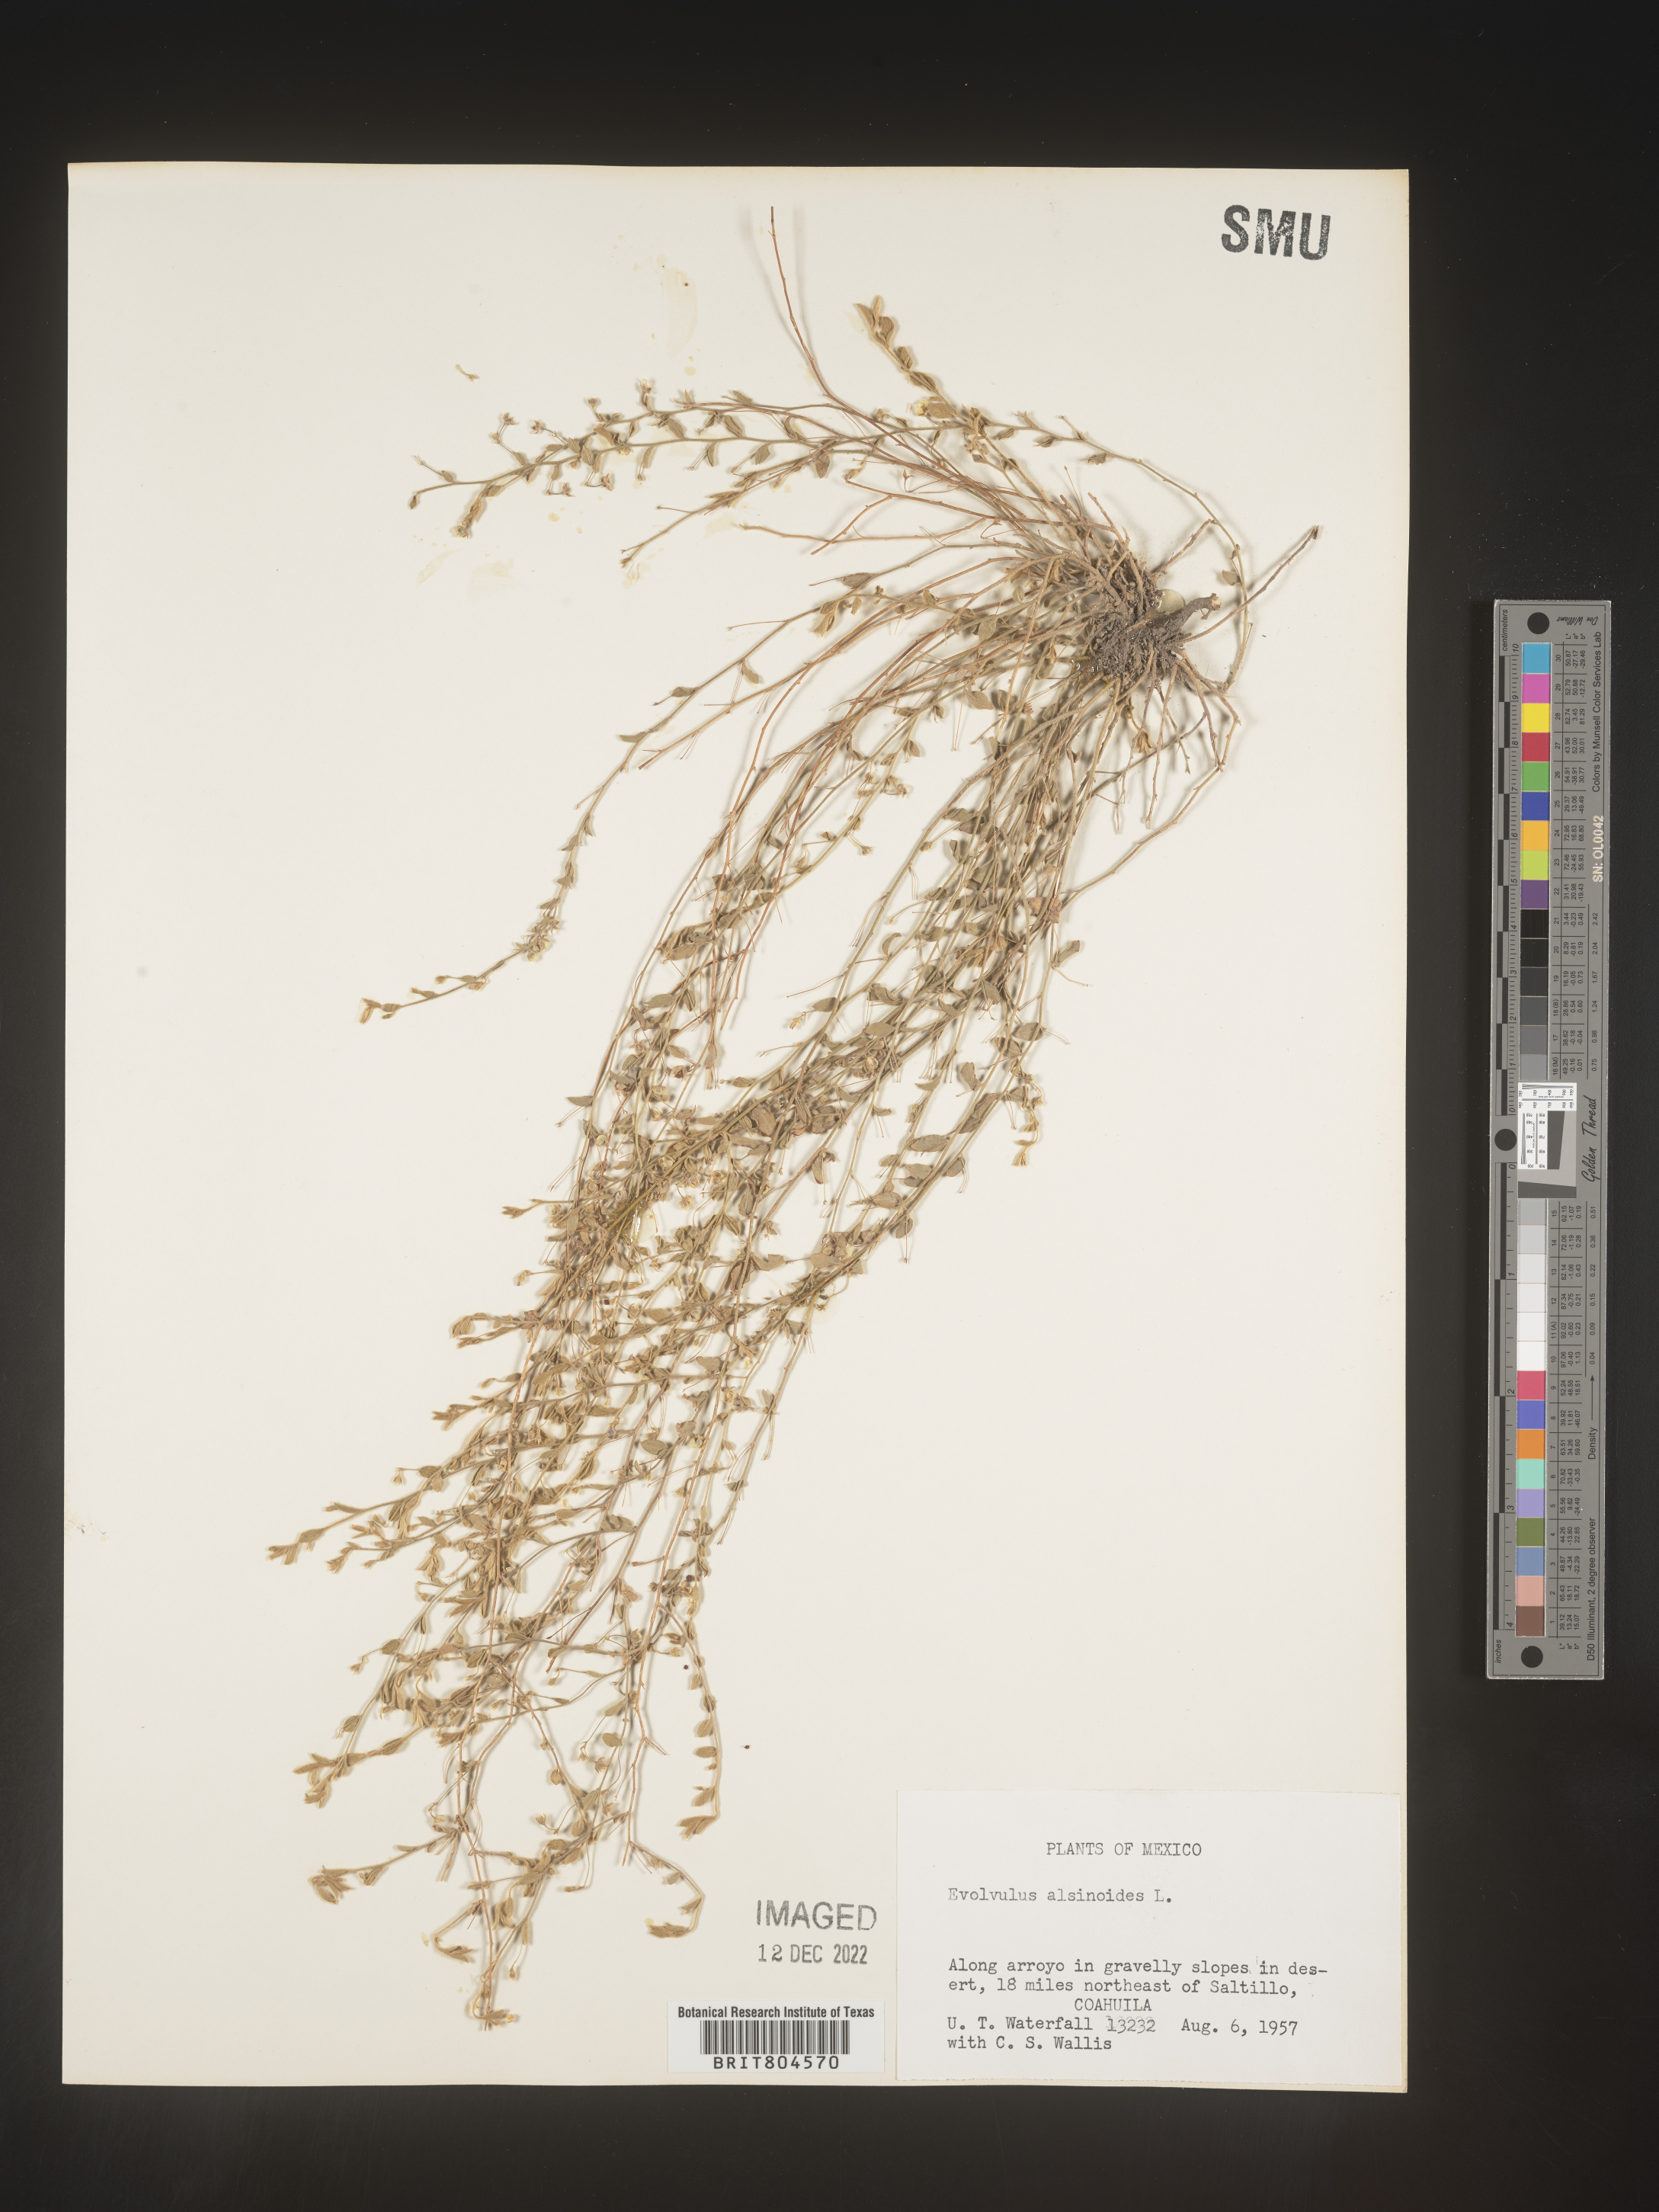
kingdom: Plantae
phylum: Tracheophyta
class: Magnoliopsida
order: Solanales
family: Convolvulaceae
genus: Evolvulus
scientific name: Evolvulus
